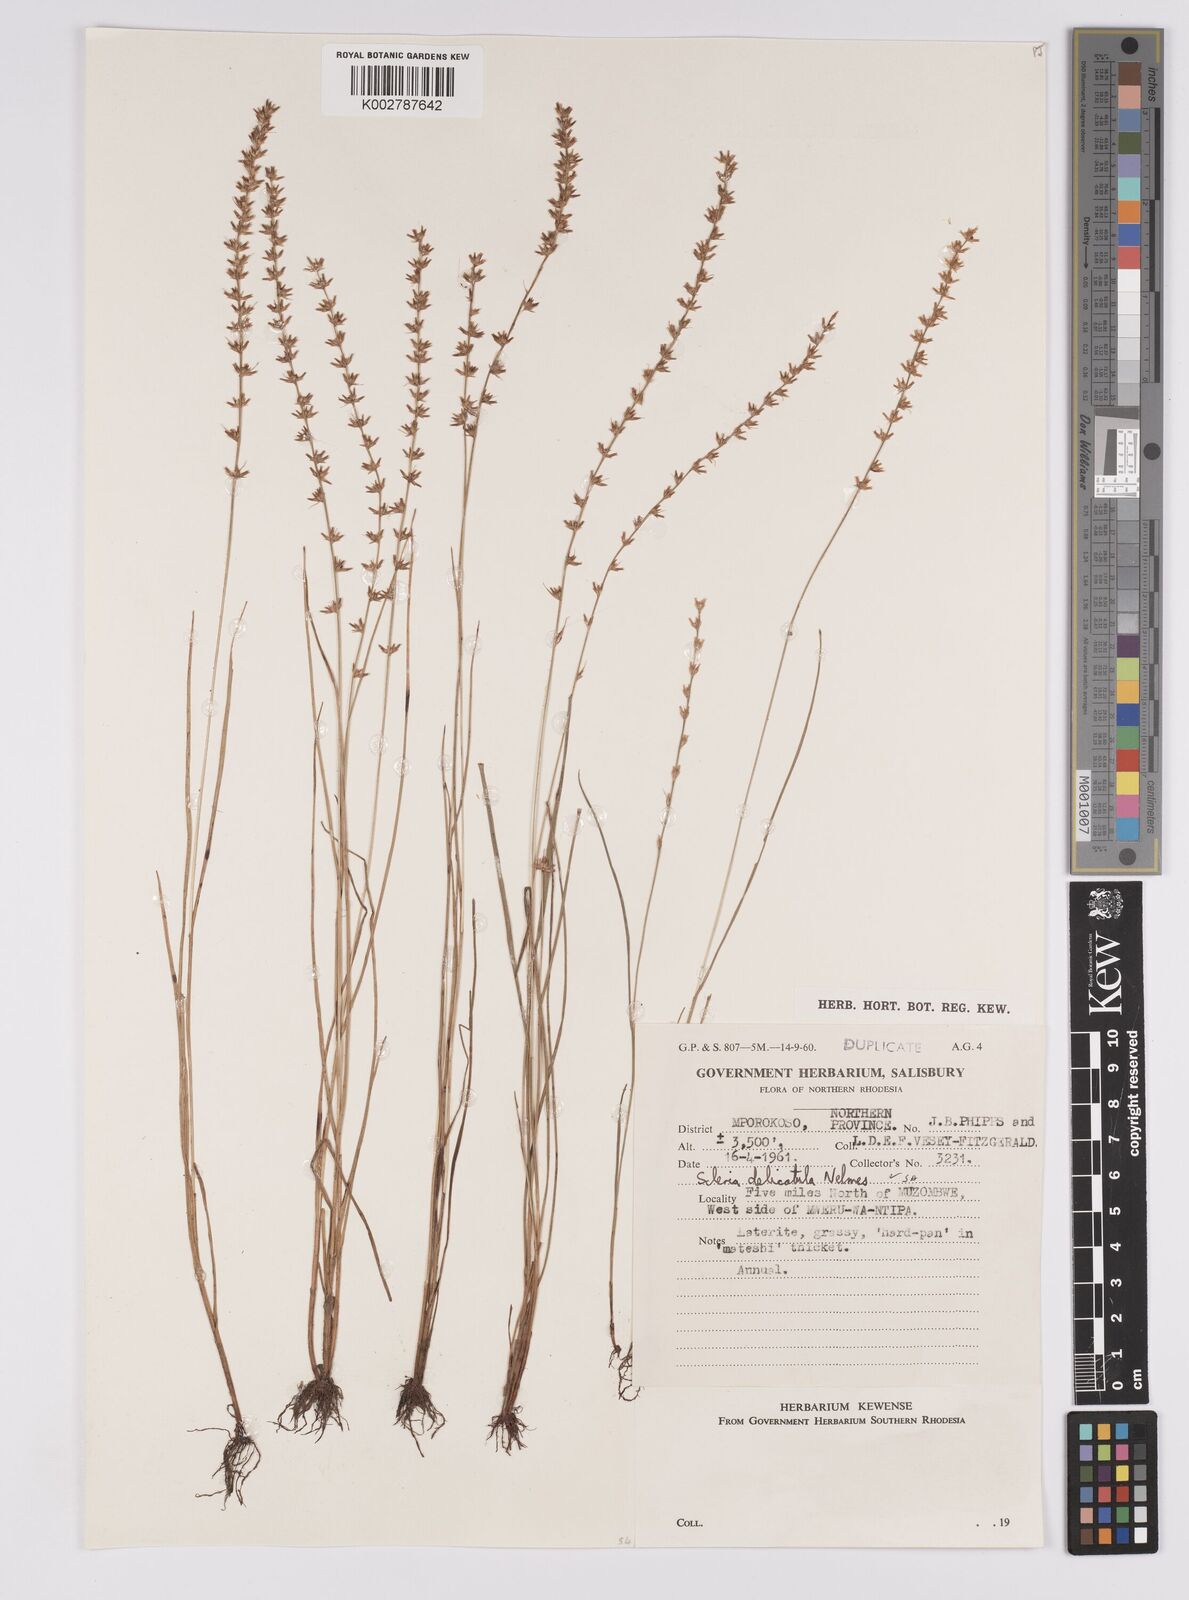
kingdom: Plantae
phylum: Tracheophyta
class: Liliopsida
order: Poales
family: Cyperaceae
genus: Scleria
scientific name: Scleria delicatula
